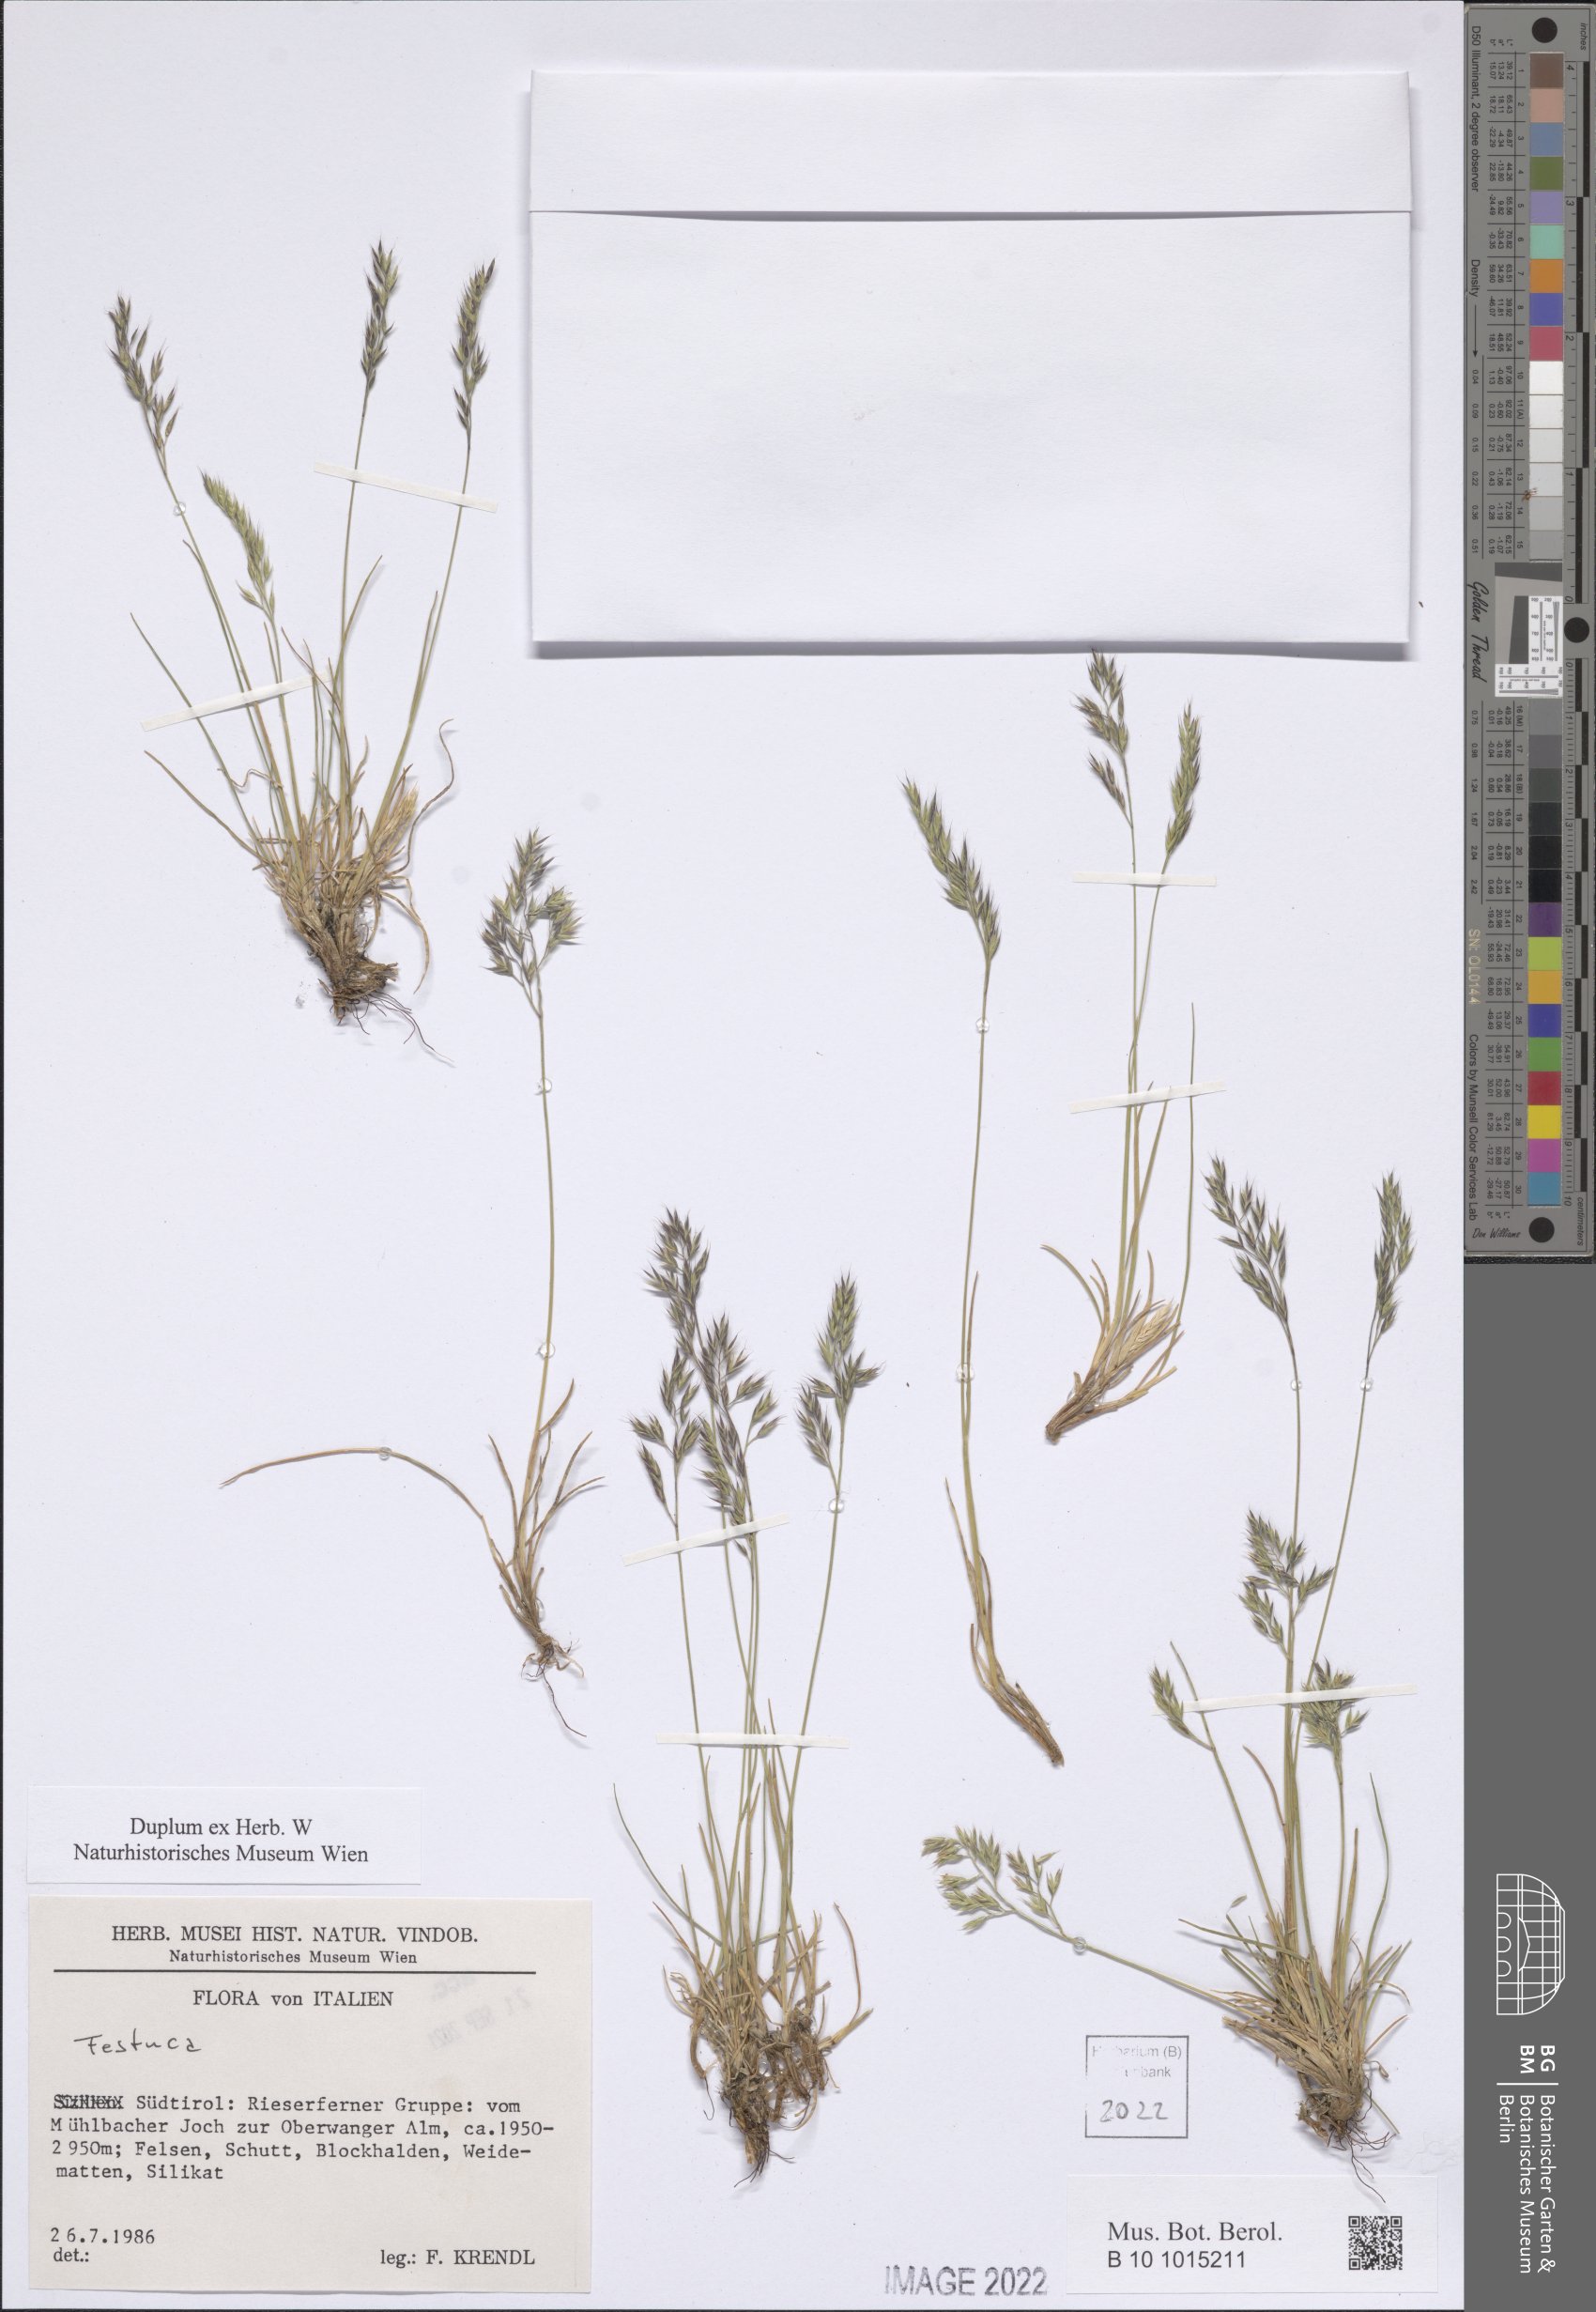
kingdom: Plantae
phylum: Tracheophyta
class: Liliopsida
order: Poales
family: Poaceae
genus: Festuca
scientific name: Festuca
